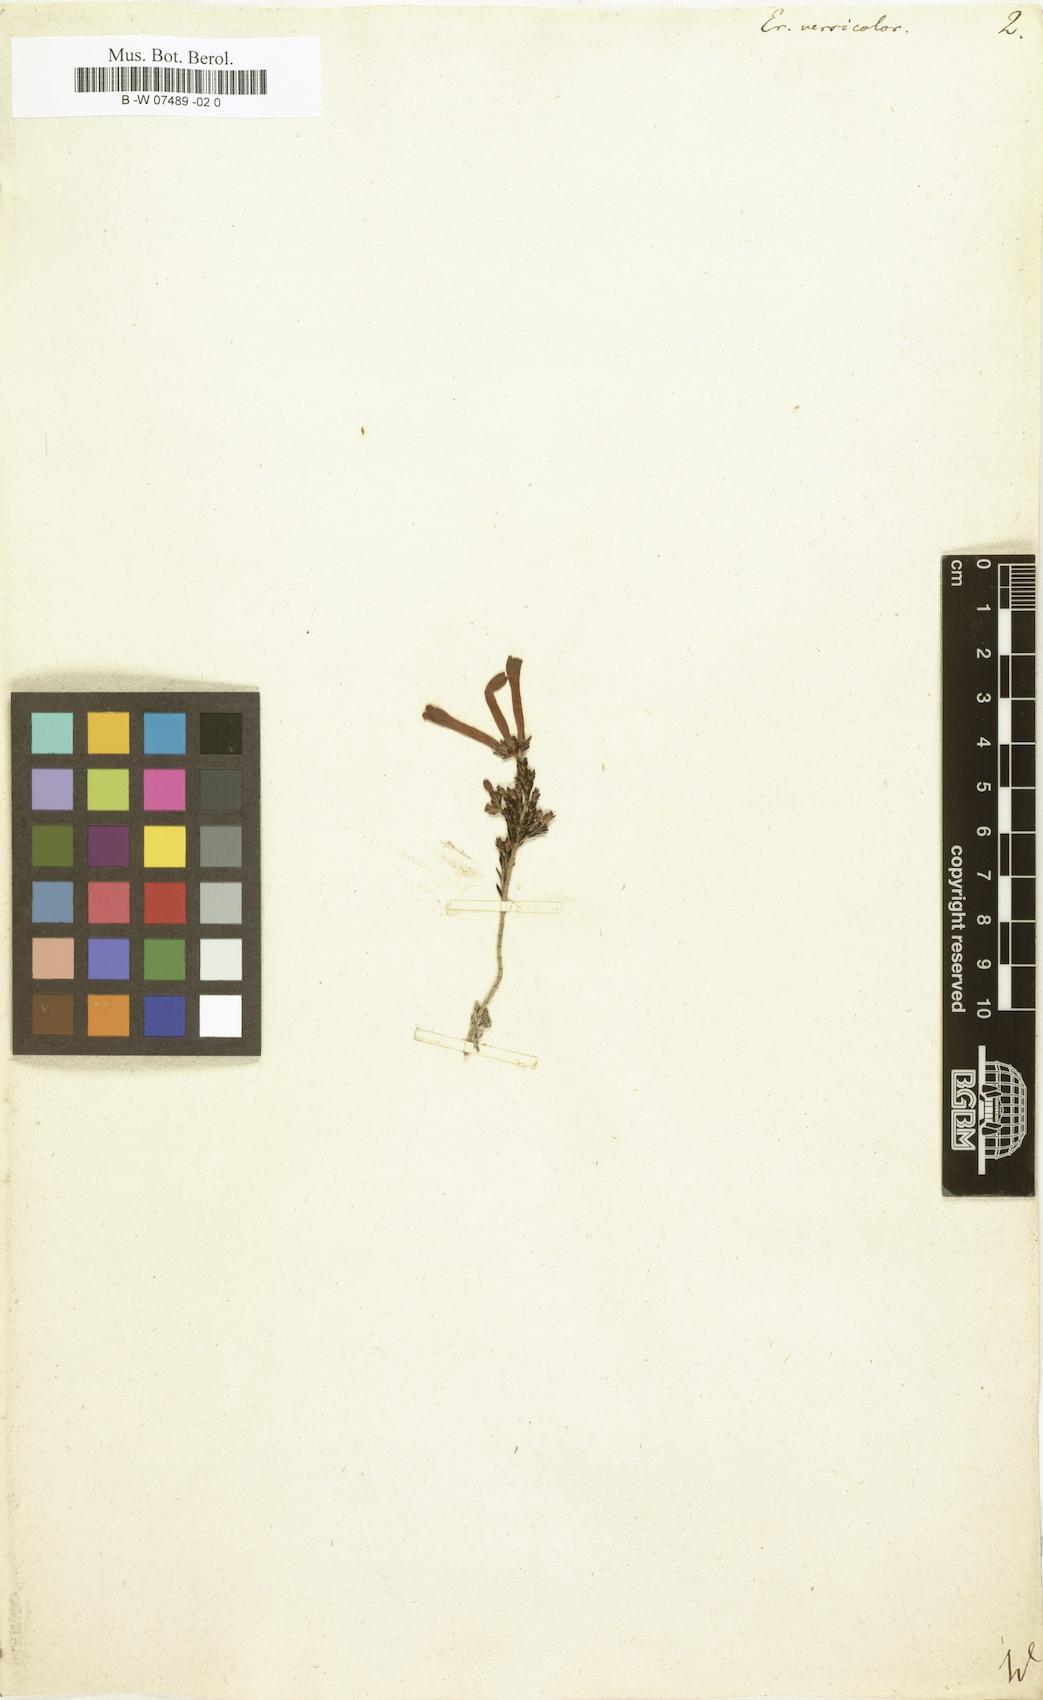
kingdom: Plantae
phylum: Tracheophyta
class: Magnoliopsida
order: Ericales
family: Ericaceae
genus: Erica
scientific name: Erica versicolor
